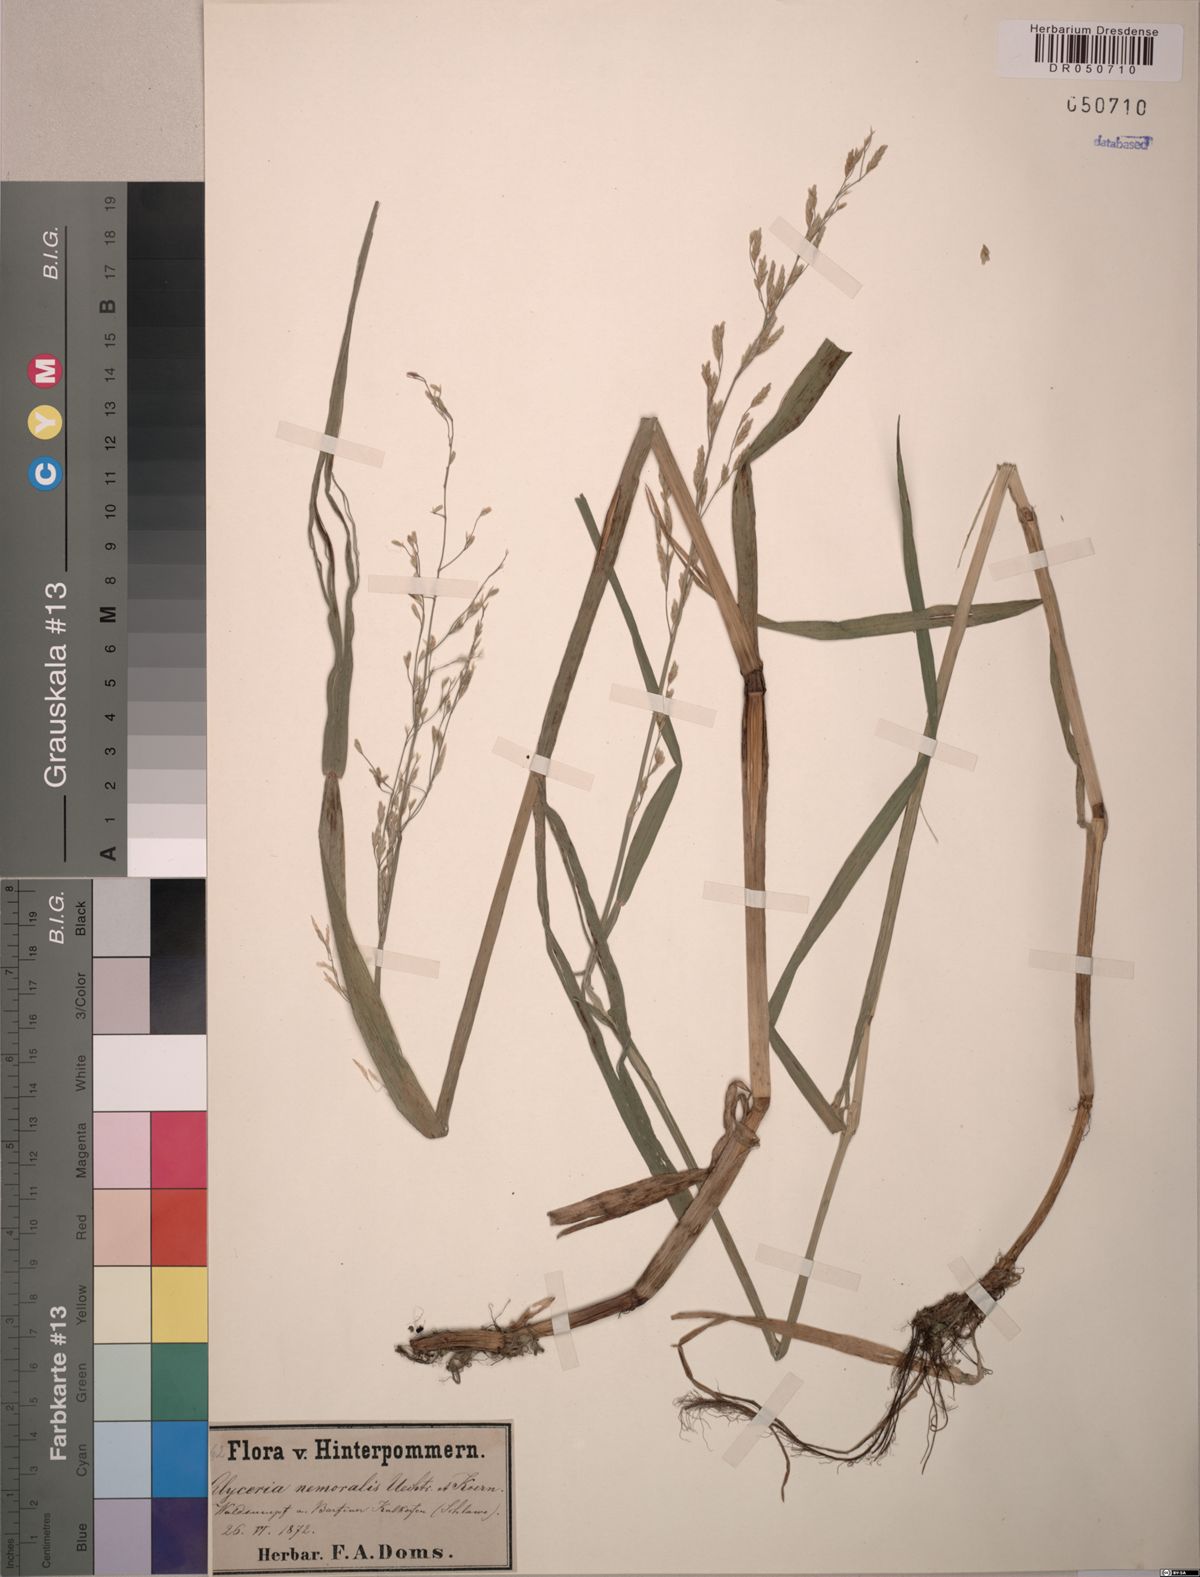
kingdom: Plantae
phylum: Tracheophyta
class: Liliopsida
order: Poales
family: Poaceae
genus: Glyceria
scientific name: Glyceria nemoralis
